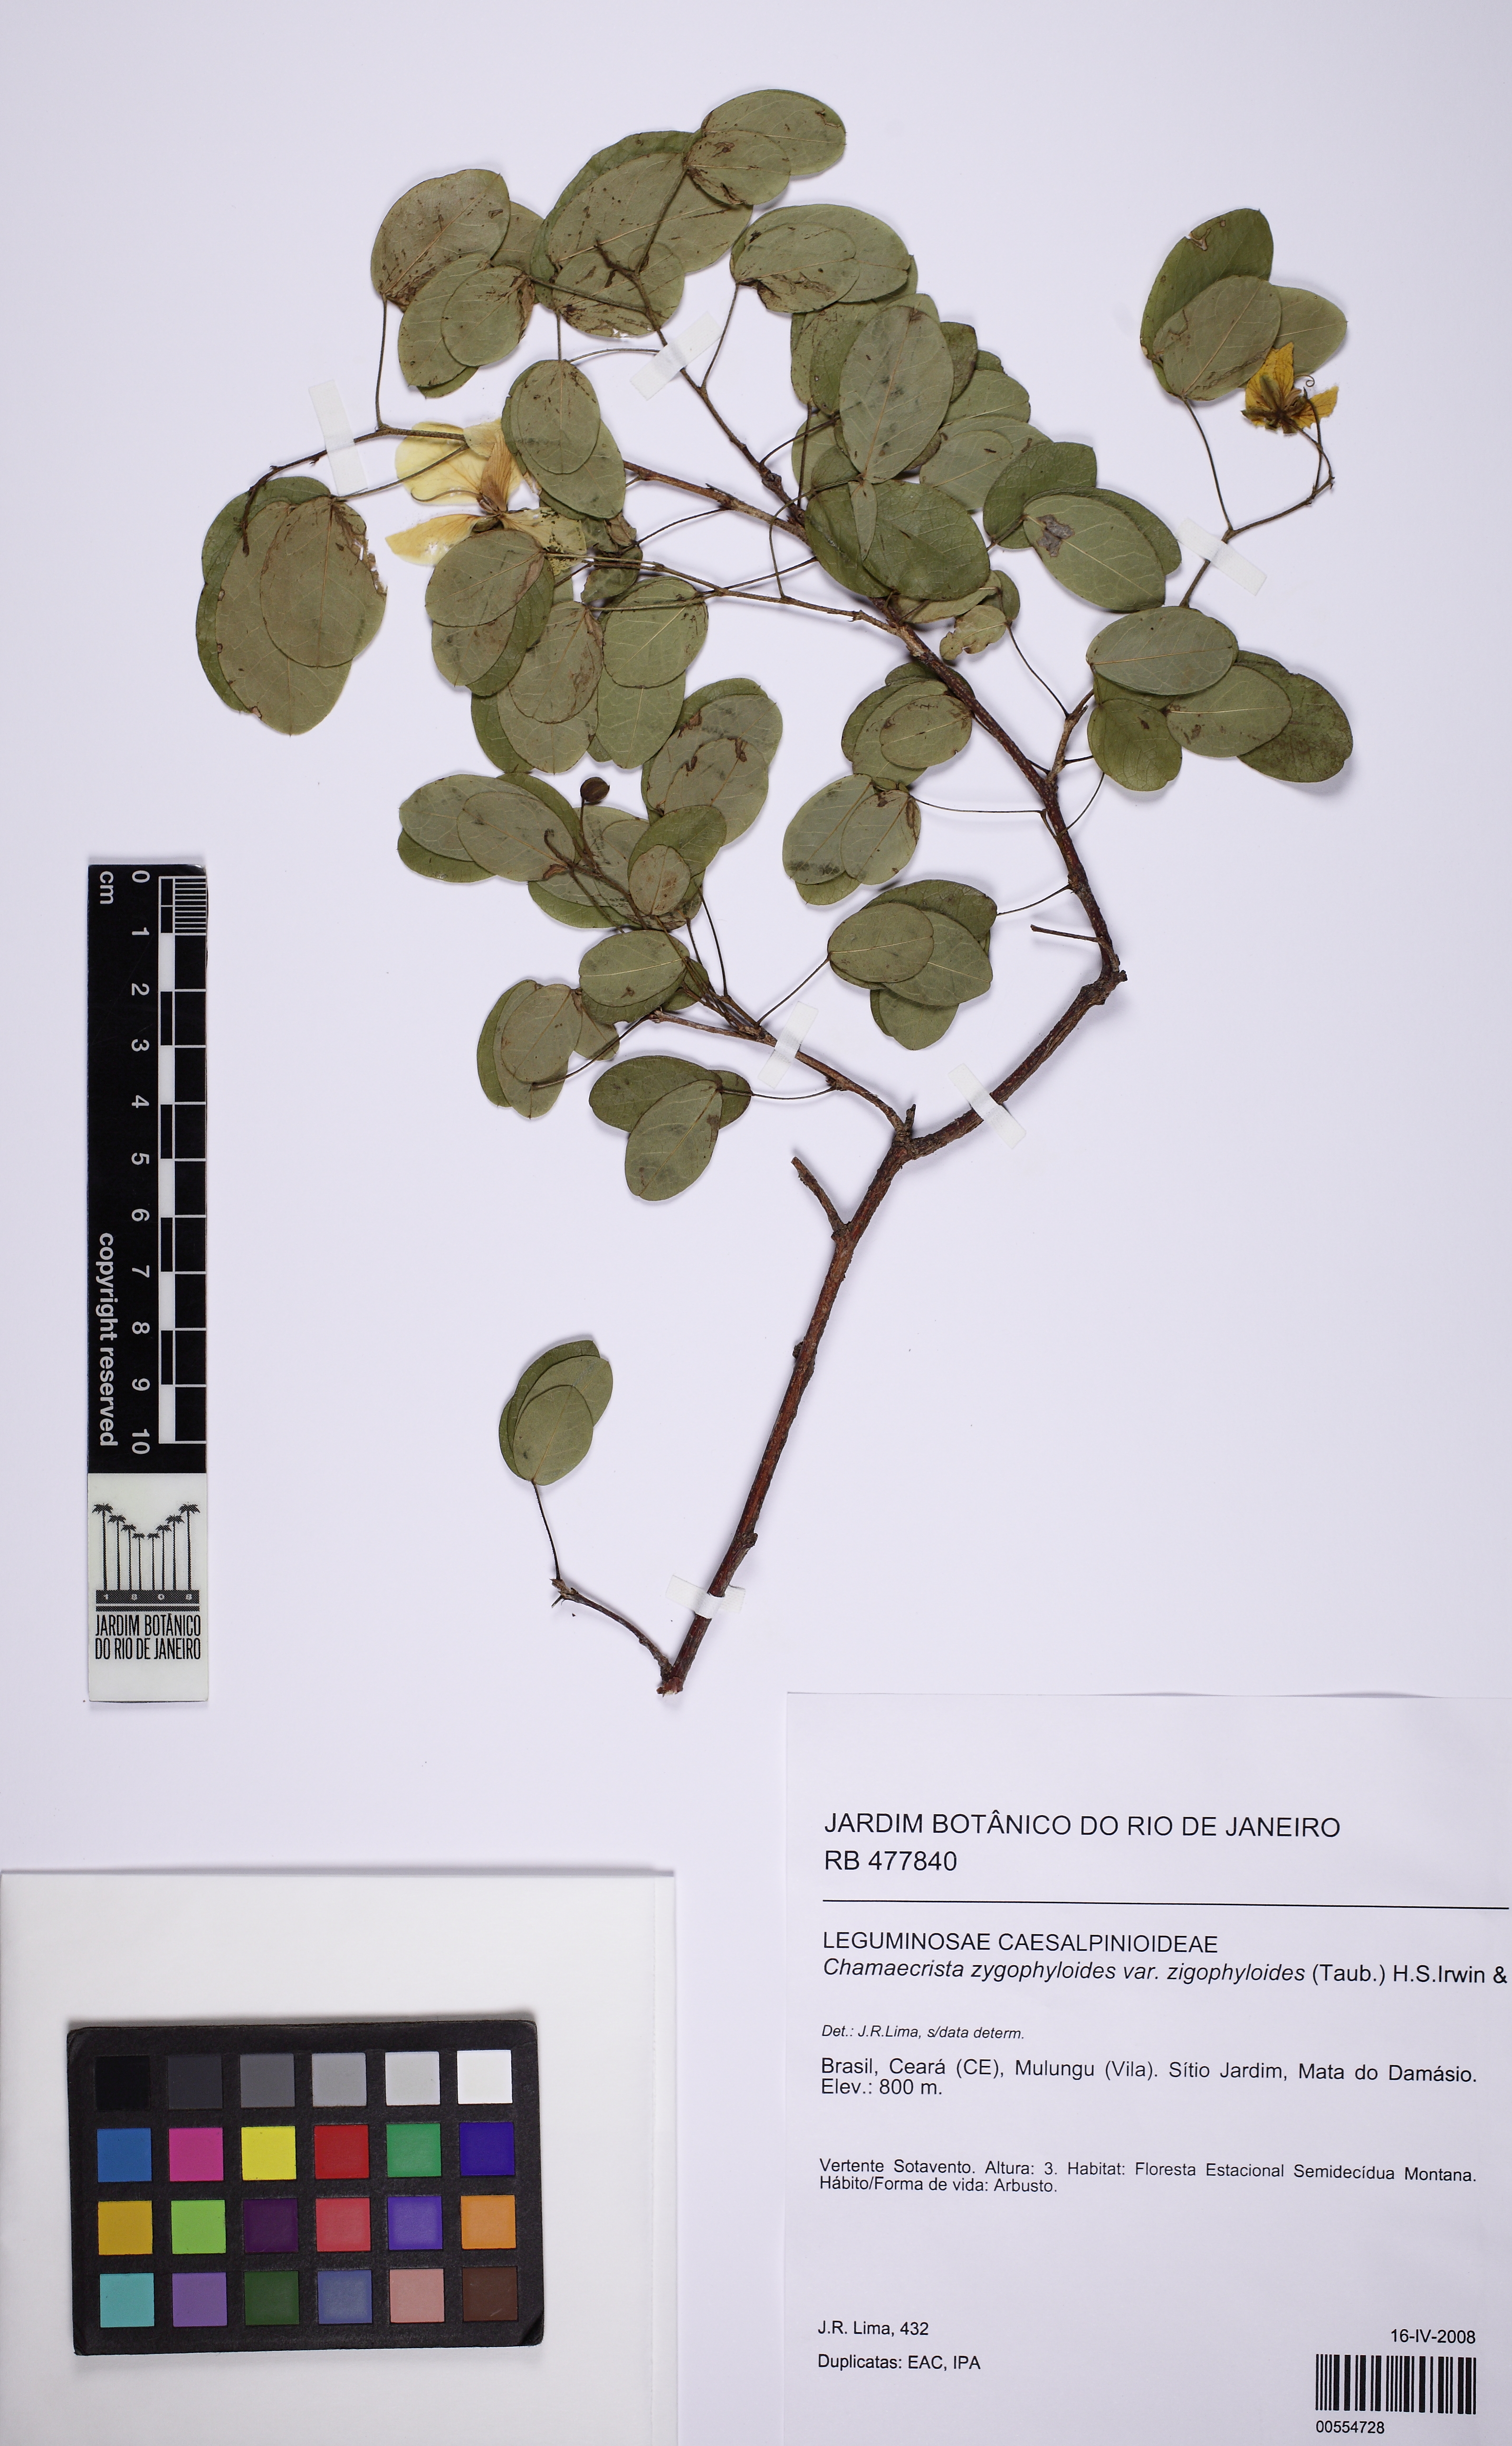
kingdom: Plantae
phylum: Tracheophyta
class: Magnoliopsida
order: Fabales
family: Fabaceae
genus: Chamaecrista
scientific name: Chamaecrista zygophylloides
